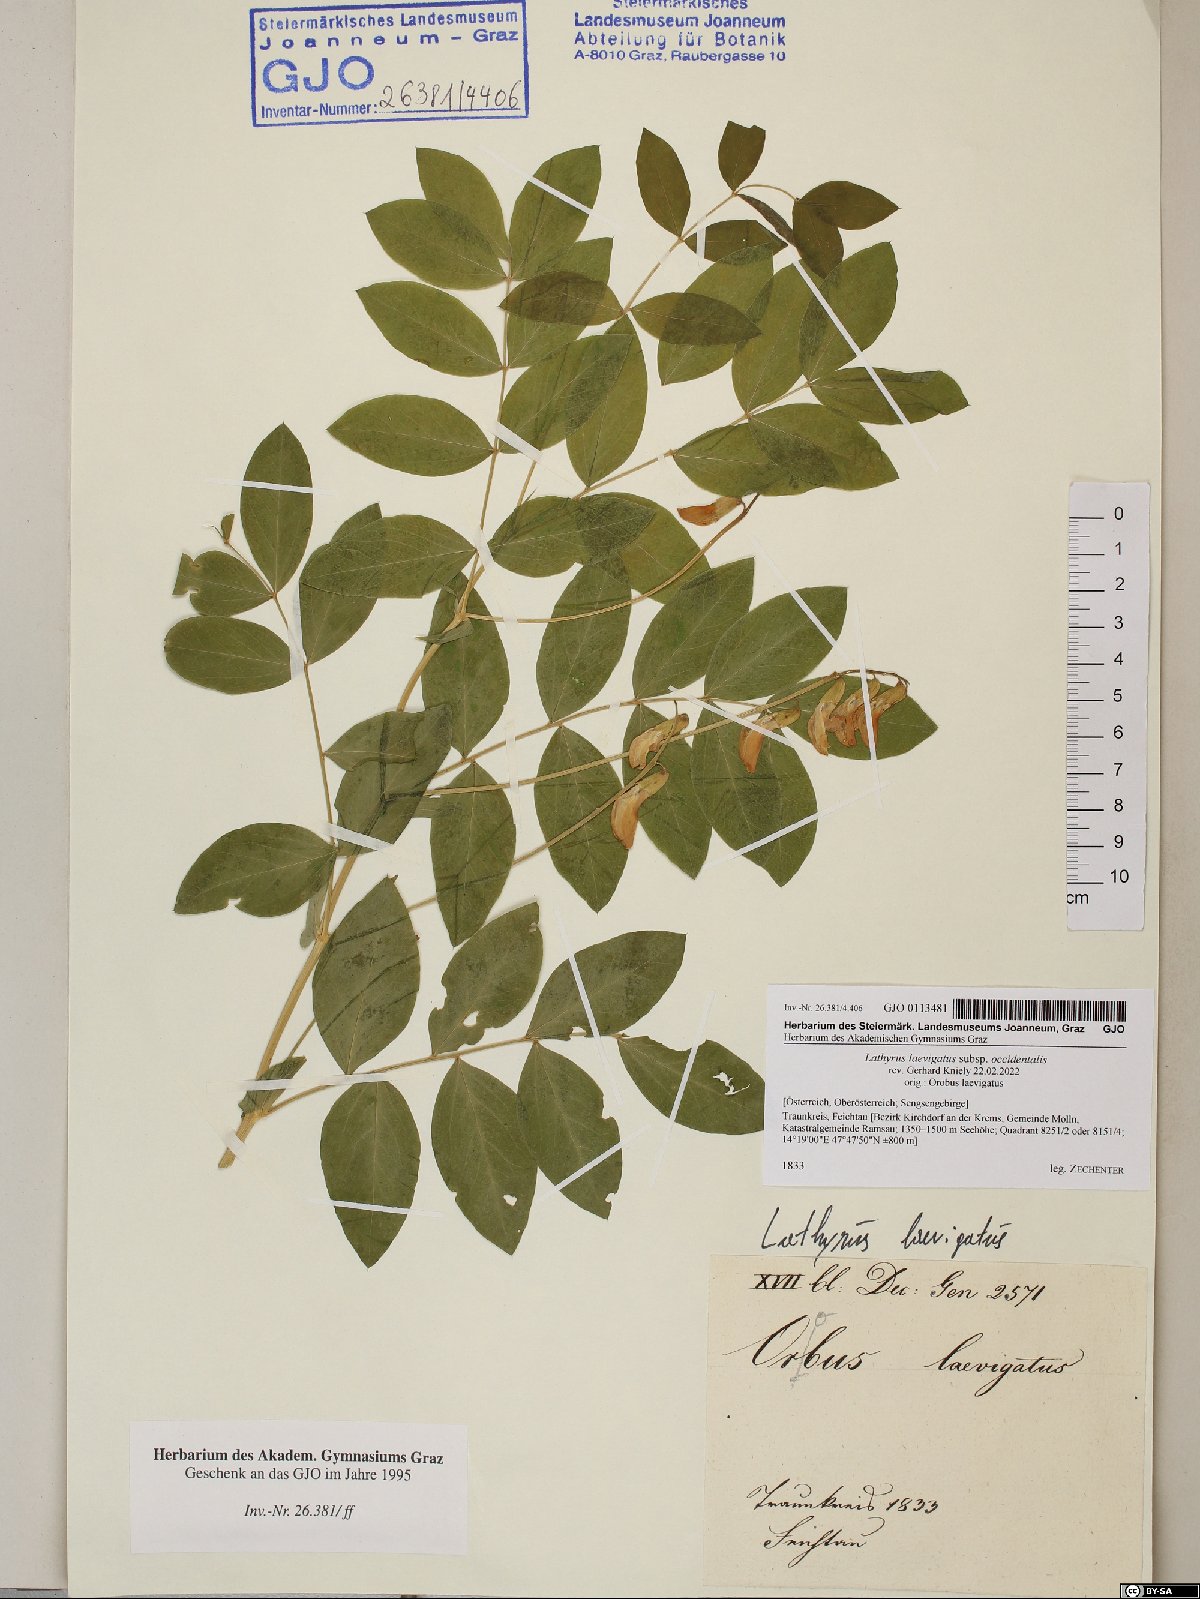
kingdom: Plantae
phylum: Tracheophyta
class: Magnoliopsida
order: Fabales
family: Fabaceae
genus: Lathyrus
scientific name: Lathyrus laevigatus
